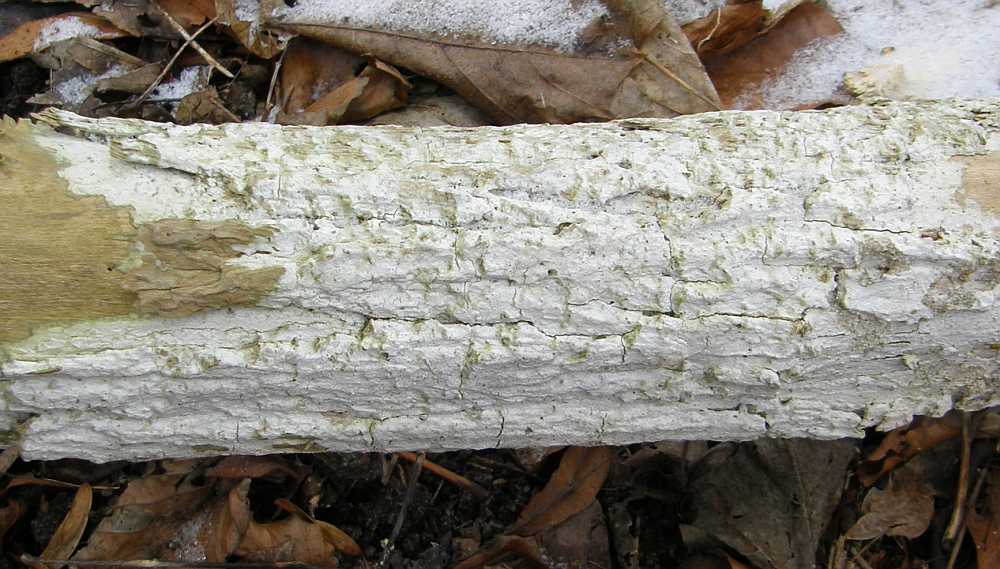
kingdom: Fungi
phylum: Basidiomycota
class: Agaricomycetes
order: Corticiales
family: Corticiaceae
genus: Lyomyces
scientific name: Lyomyces sambuci
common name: almindelig hyldehinde
